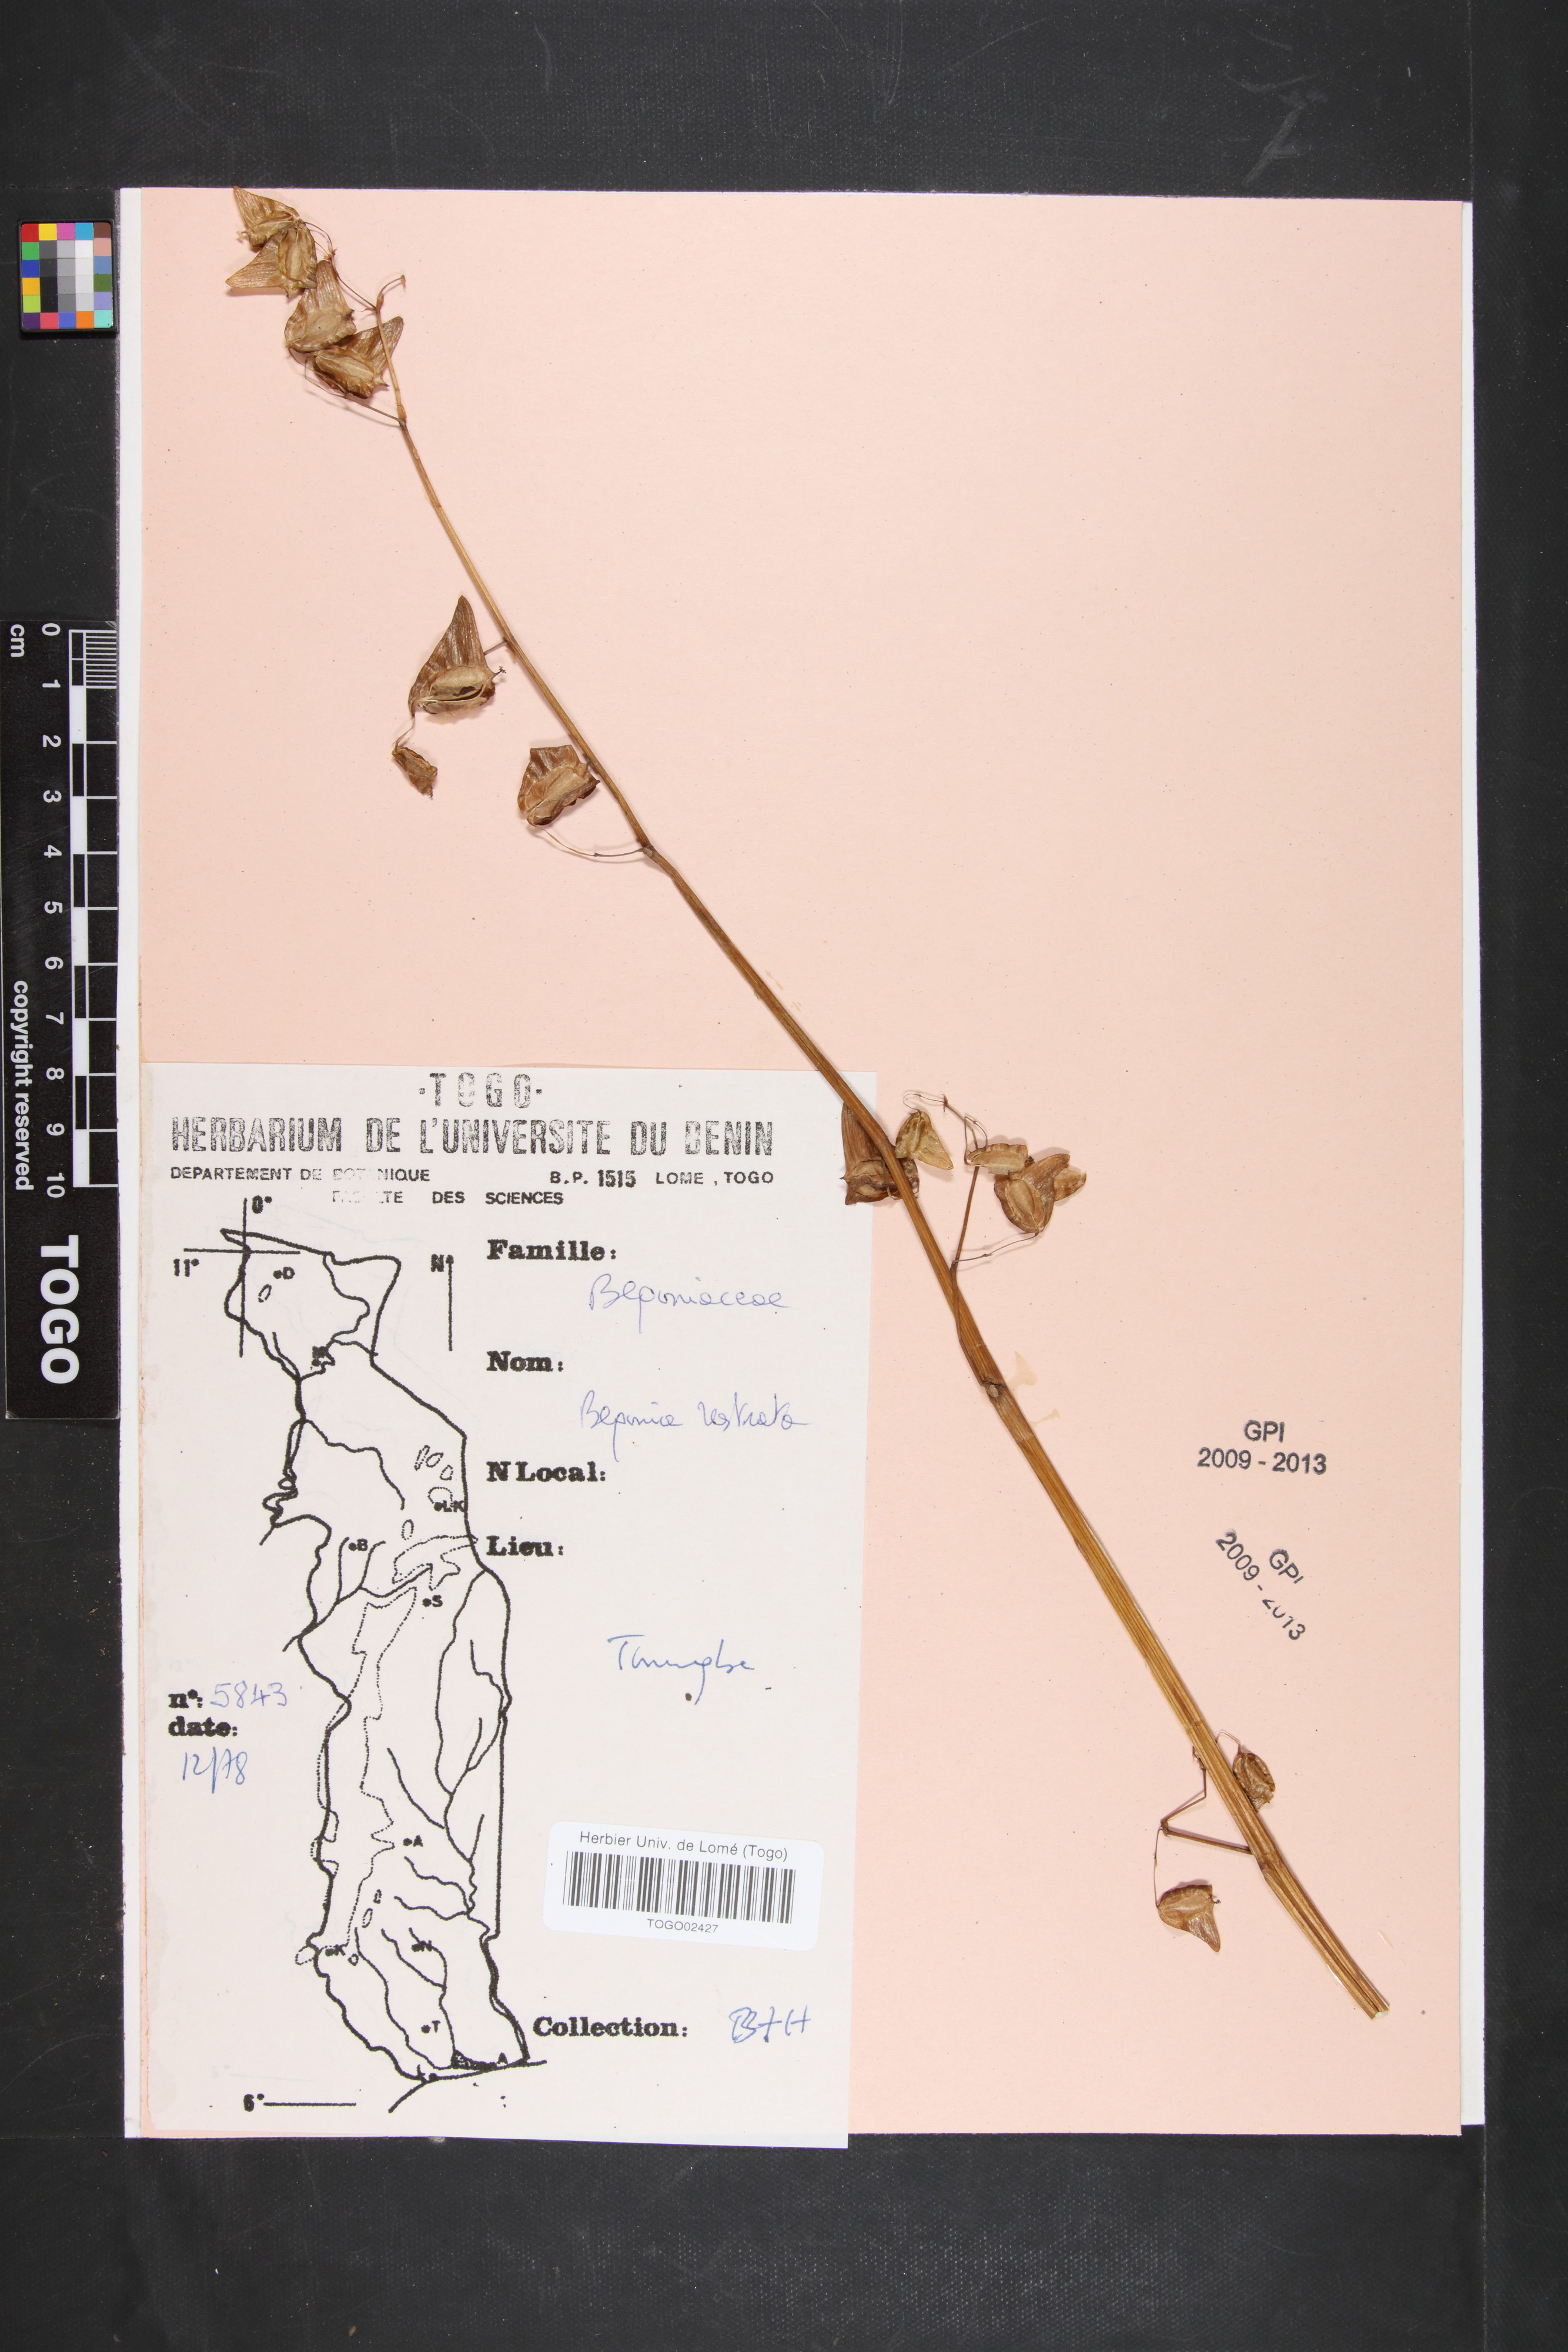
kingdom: Plantae
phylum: Tracheophyta
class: Magnoliopsida
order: Cucurbitales
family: Begoniaceae
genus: Begonia
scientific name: Begonia rostrata
